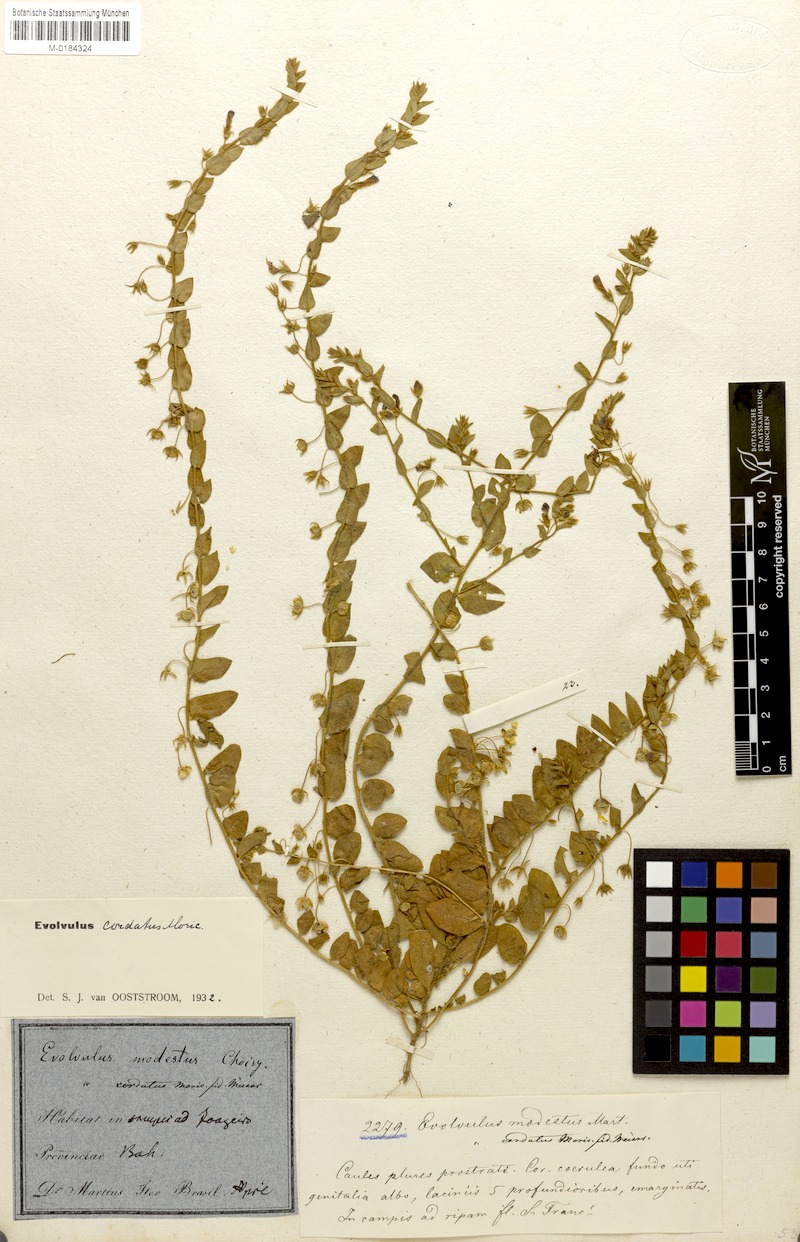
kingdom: Plantae
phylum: Tracheophyta
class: Magnoliopsida
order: Solanales
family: Convolvulaceae
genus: Evolvulus
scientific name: Evolvulus cordatus
